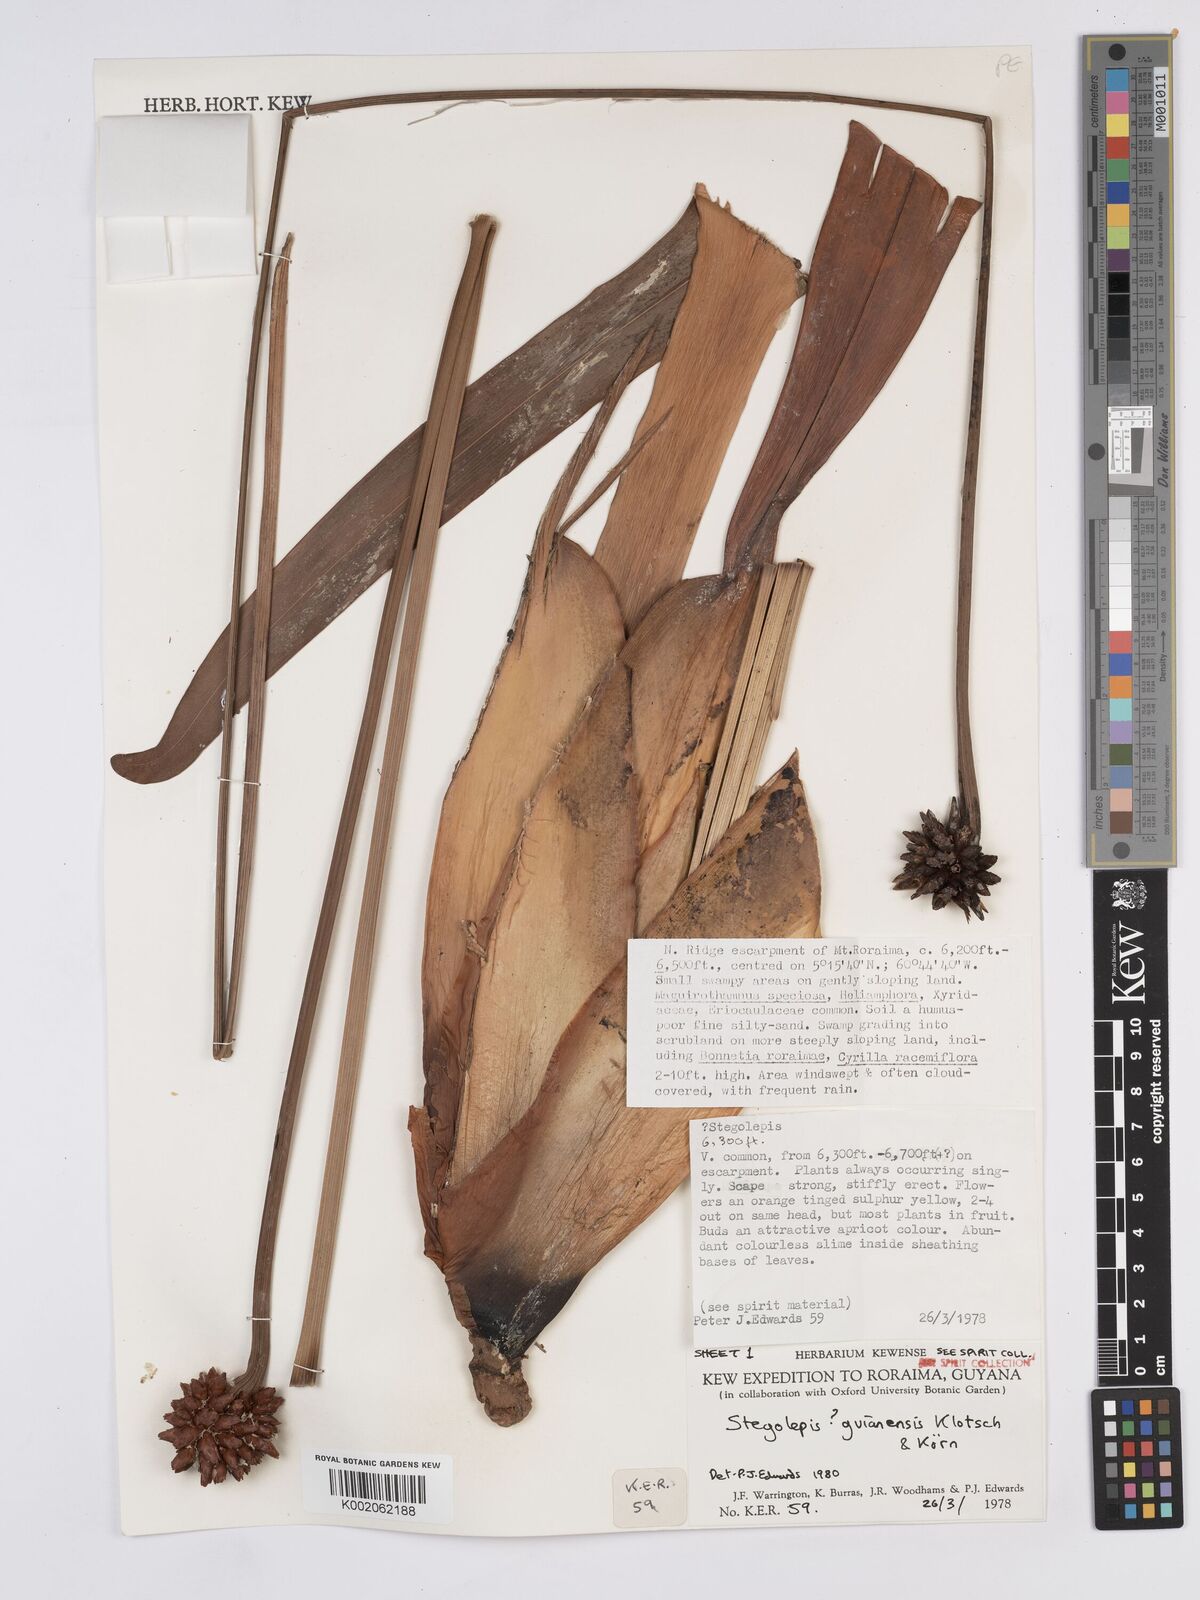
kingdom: Plantae
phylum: Tracheophyta
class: Liliopsida
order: Poales
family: Rapateaceae
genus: Stegolepis
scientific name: Stegolepis guianensis
